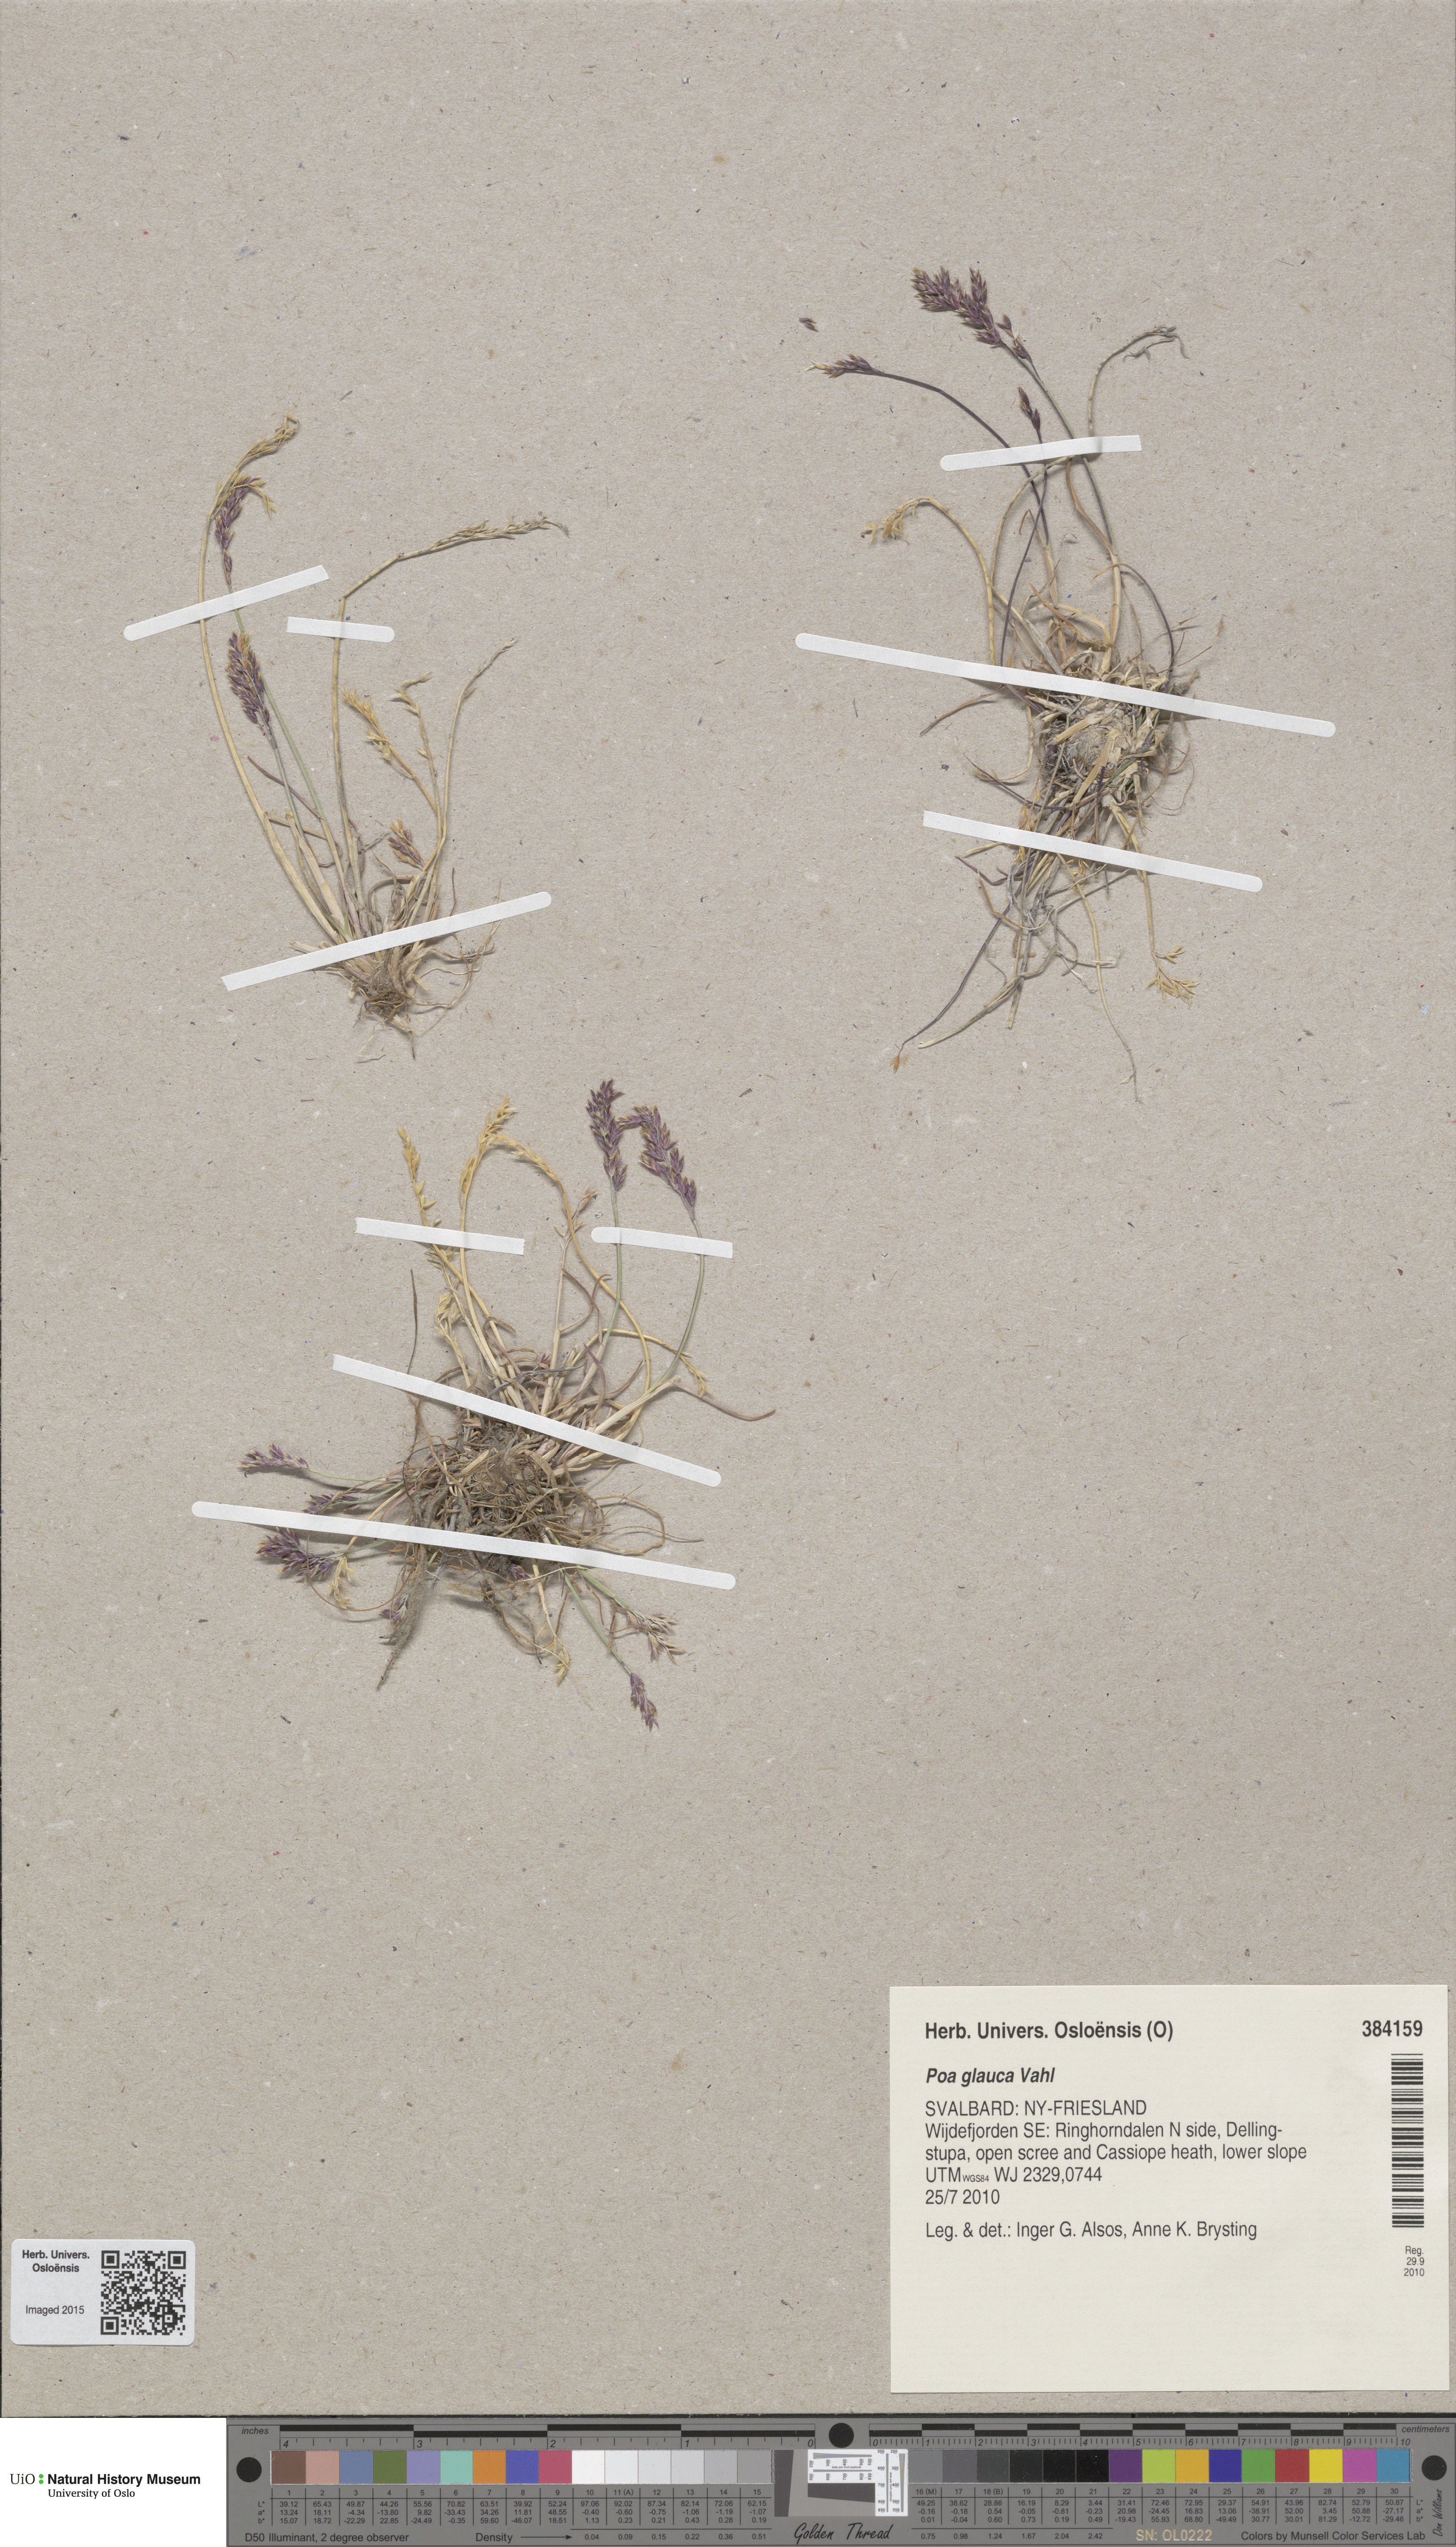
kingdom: Plantae
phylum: Tracheophyta
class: Liliopsida
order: Poales
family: Poaceae
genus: Poa
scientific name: Poa glauca
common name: Glaucous bluegrass
